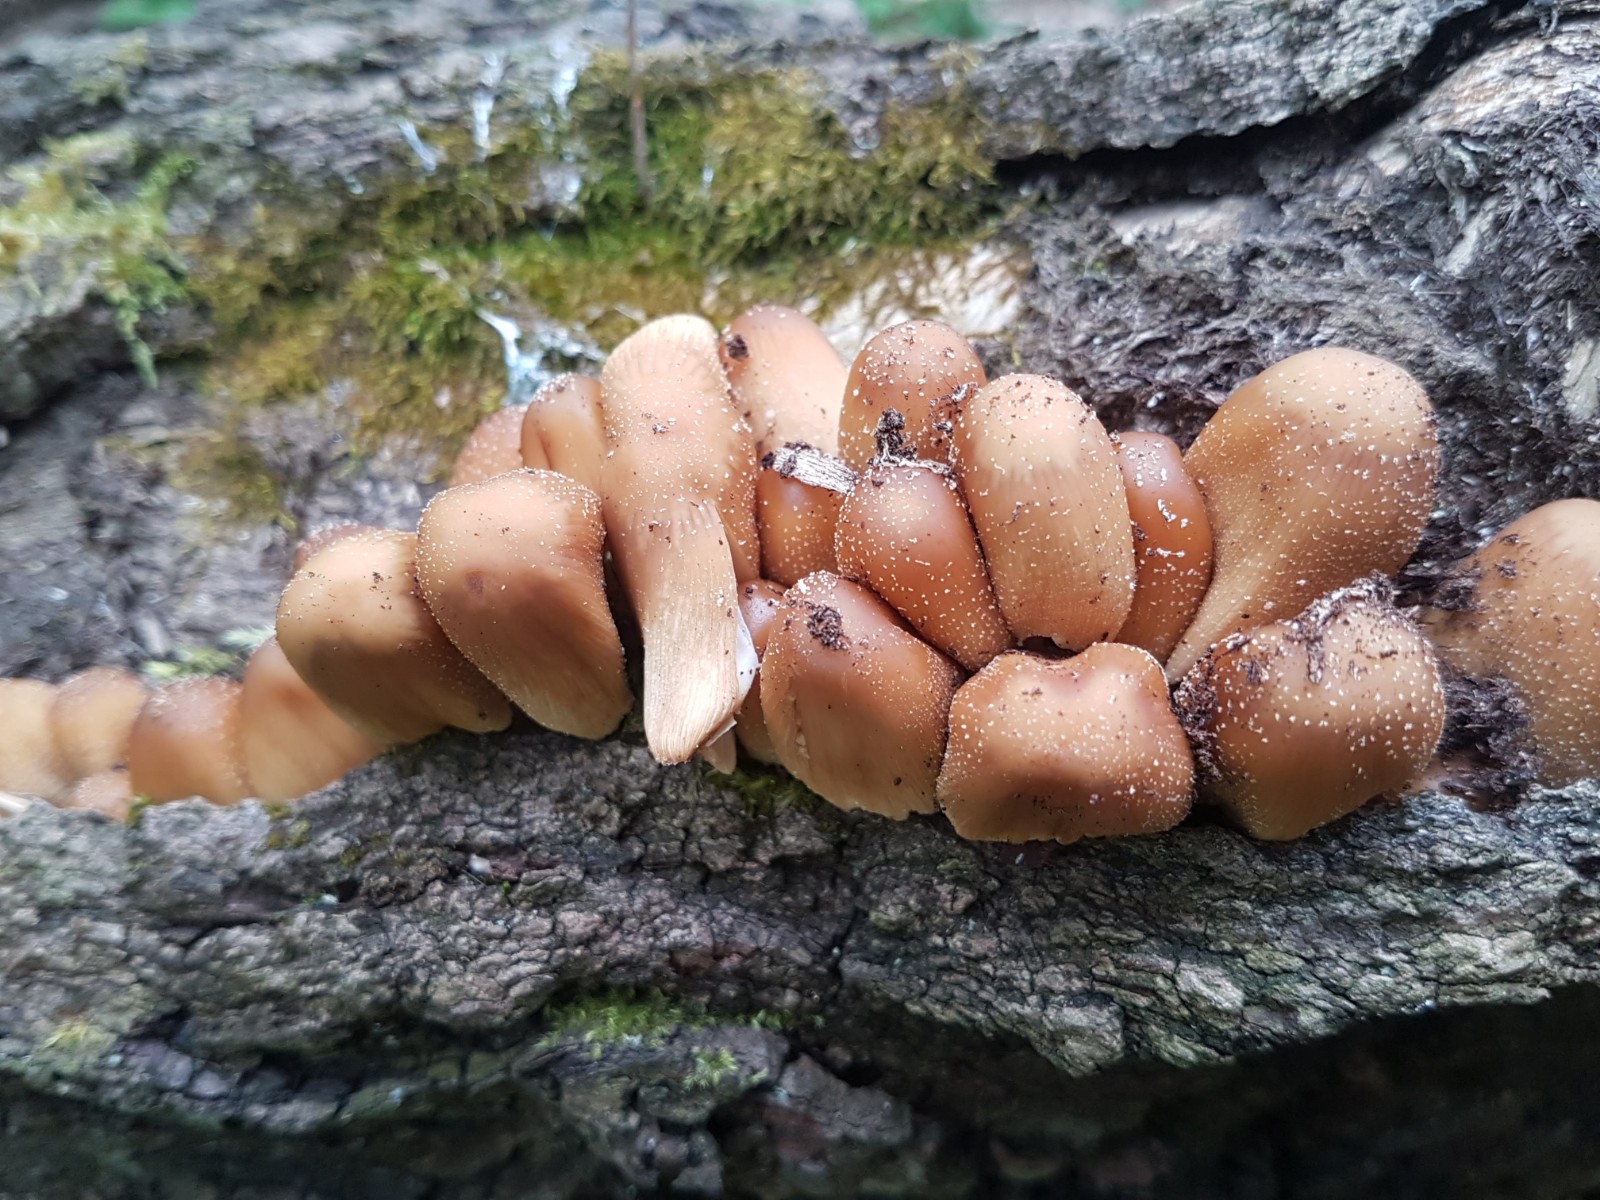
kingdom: Fungi
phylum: Basidiomycota
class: Agaricomycetes
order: Agaricales
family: Psathyrellaceae
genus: Coprinellus
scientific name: Coprinellus micaceus
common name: glimmer-blækhat
